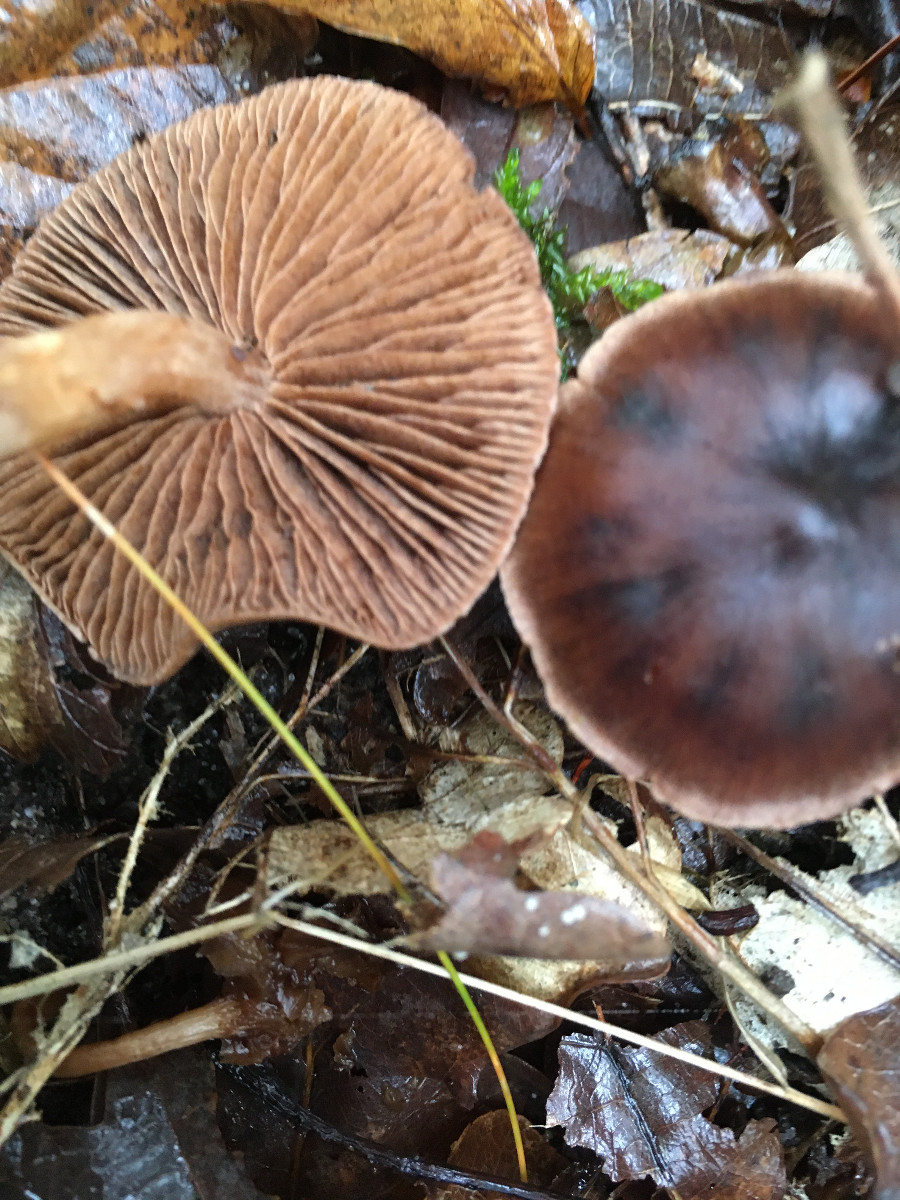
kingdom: Fungi
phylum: Basidiomycota
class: Agaricomycetes
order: Agaricales
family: Cortinariaceae
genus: Cortinarius
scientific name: Cortinarius
